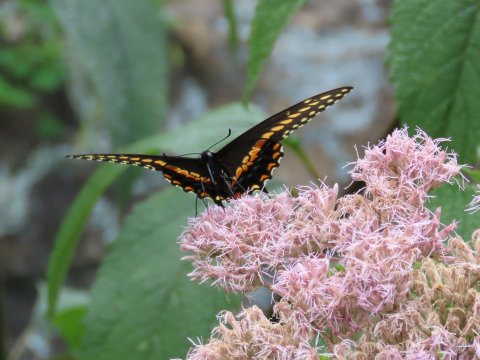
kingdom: Animalia
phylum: Arthropoda
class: Insecta
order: Lepidoptera
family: Papilionidae
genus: Papilio
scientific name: Papilio polyxenes
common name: Black Swallowtail
